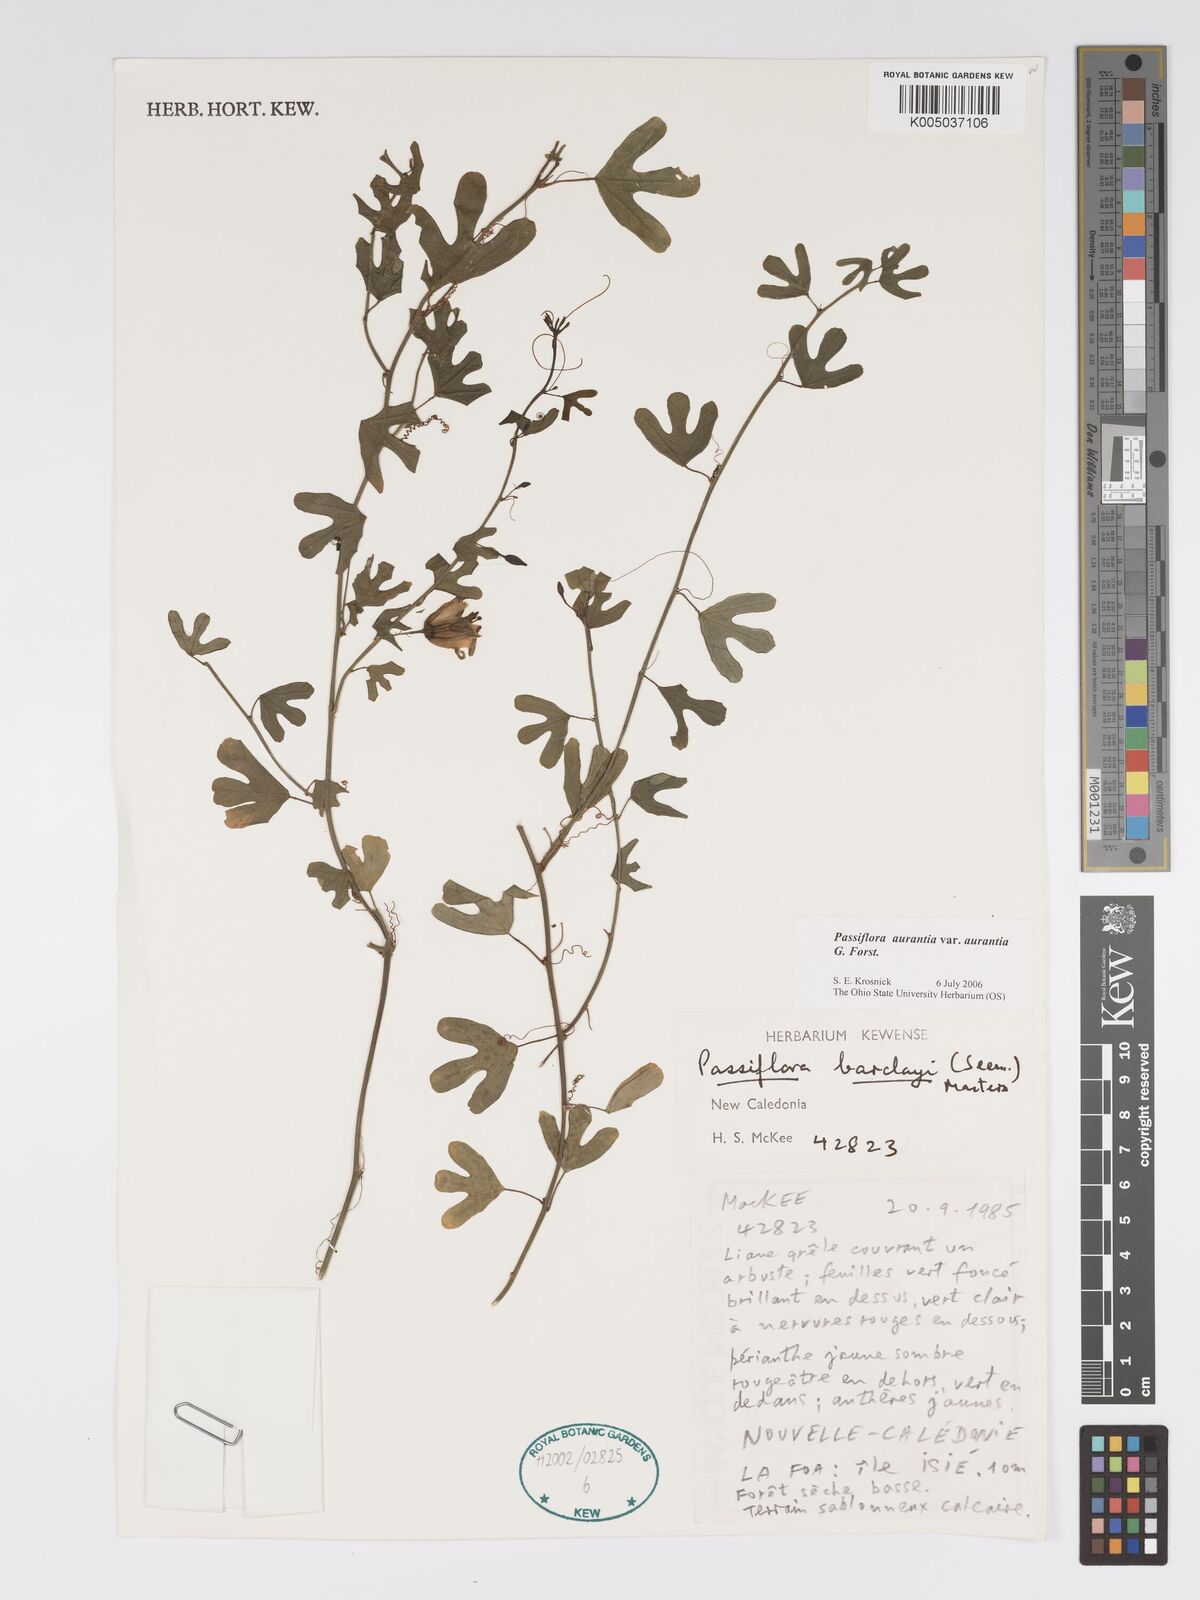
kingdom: Plantae
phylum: Tracheophyta
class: Magnoliopsida
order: Malpighiales
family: Passifloraceae
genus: Passiflora
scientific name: Passiflora aurantia
